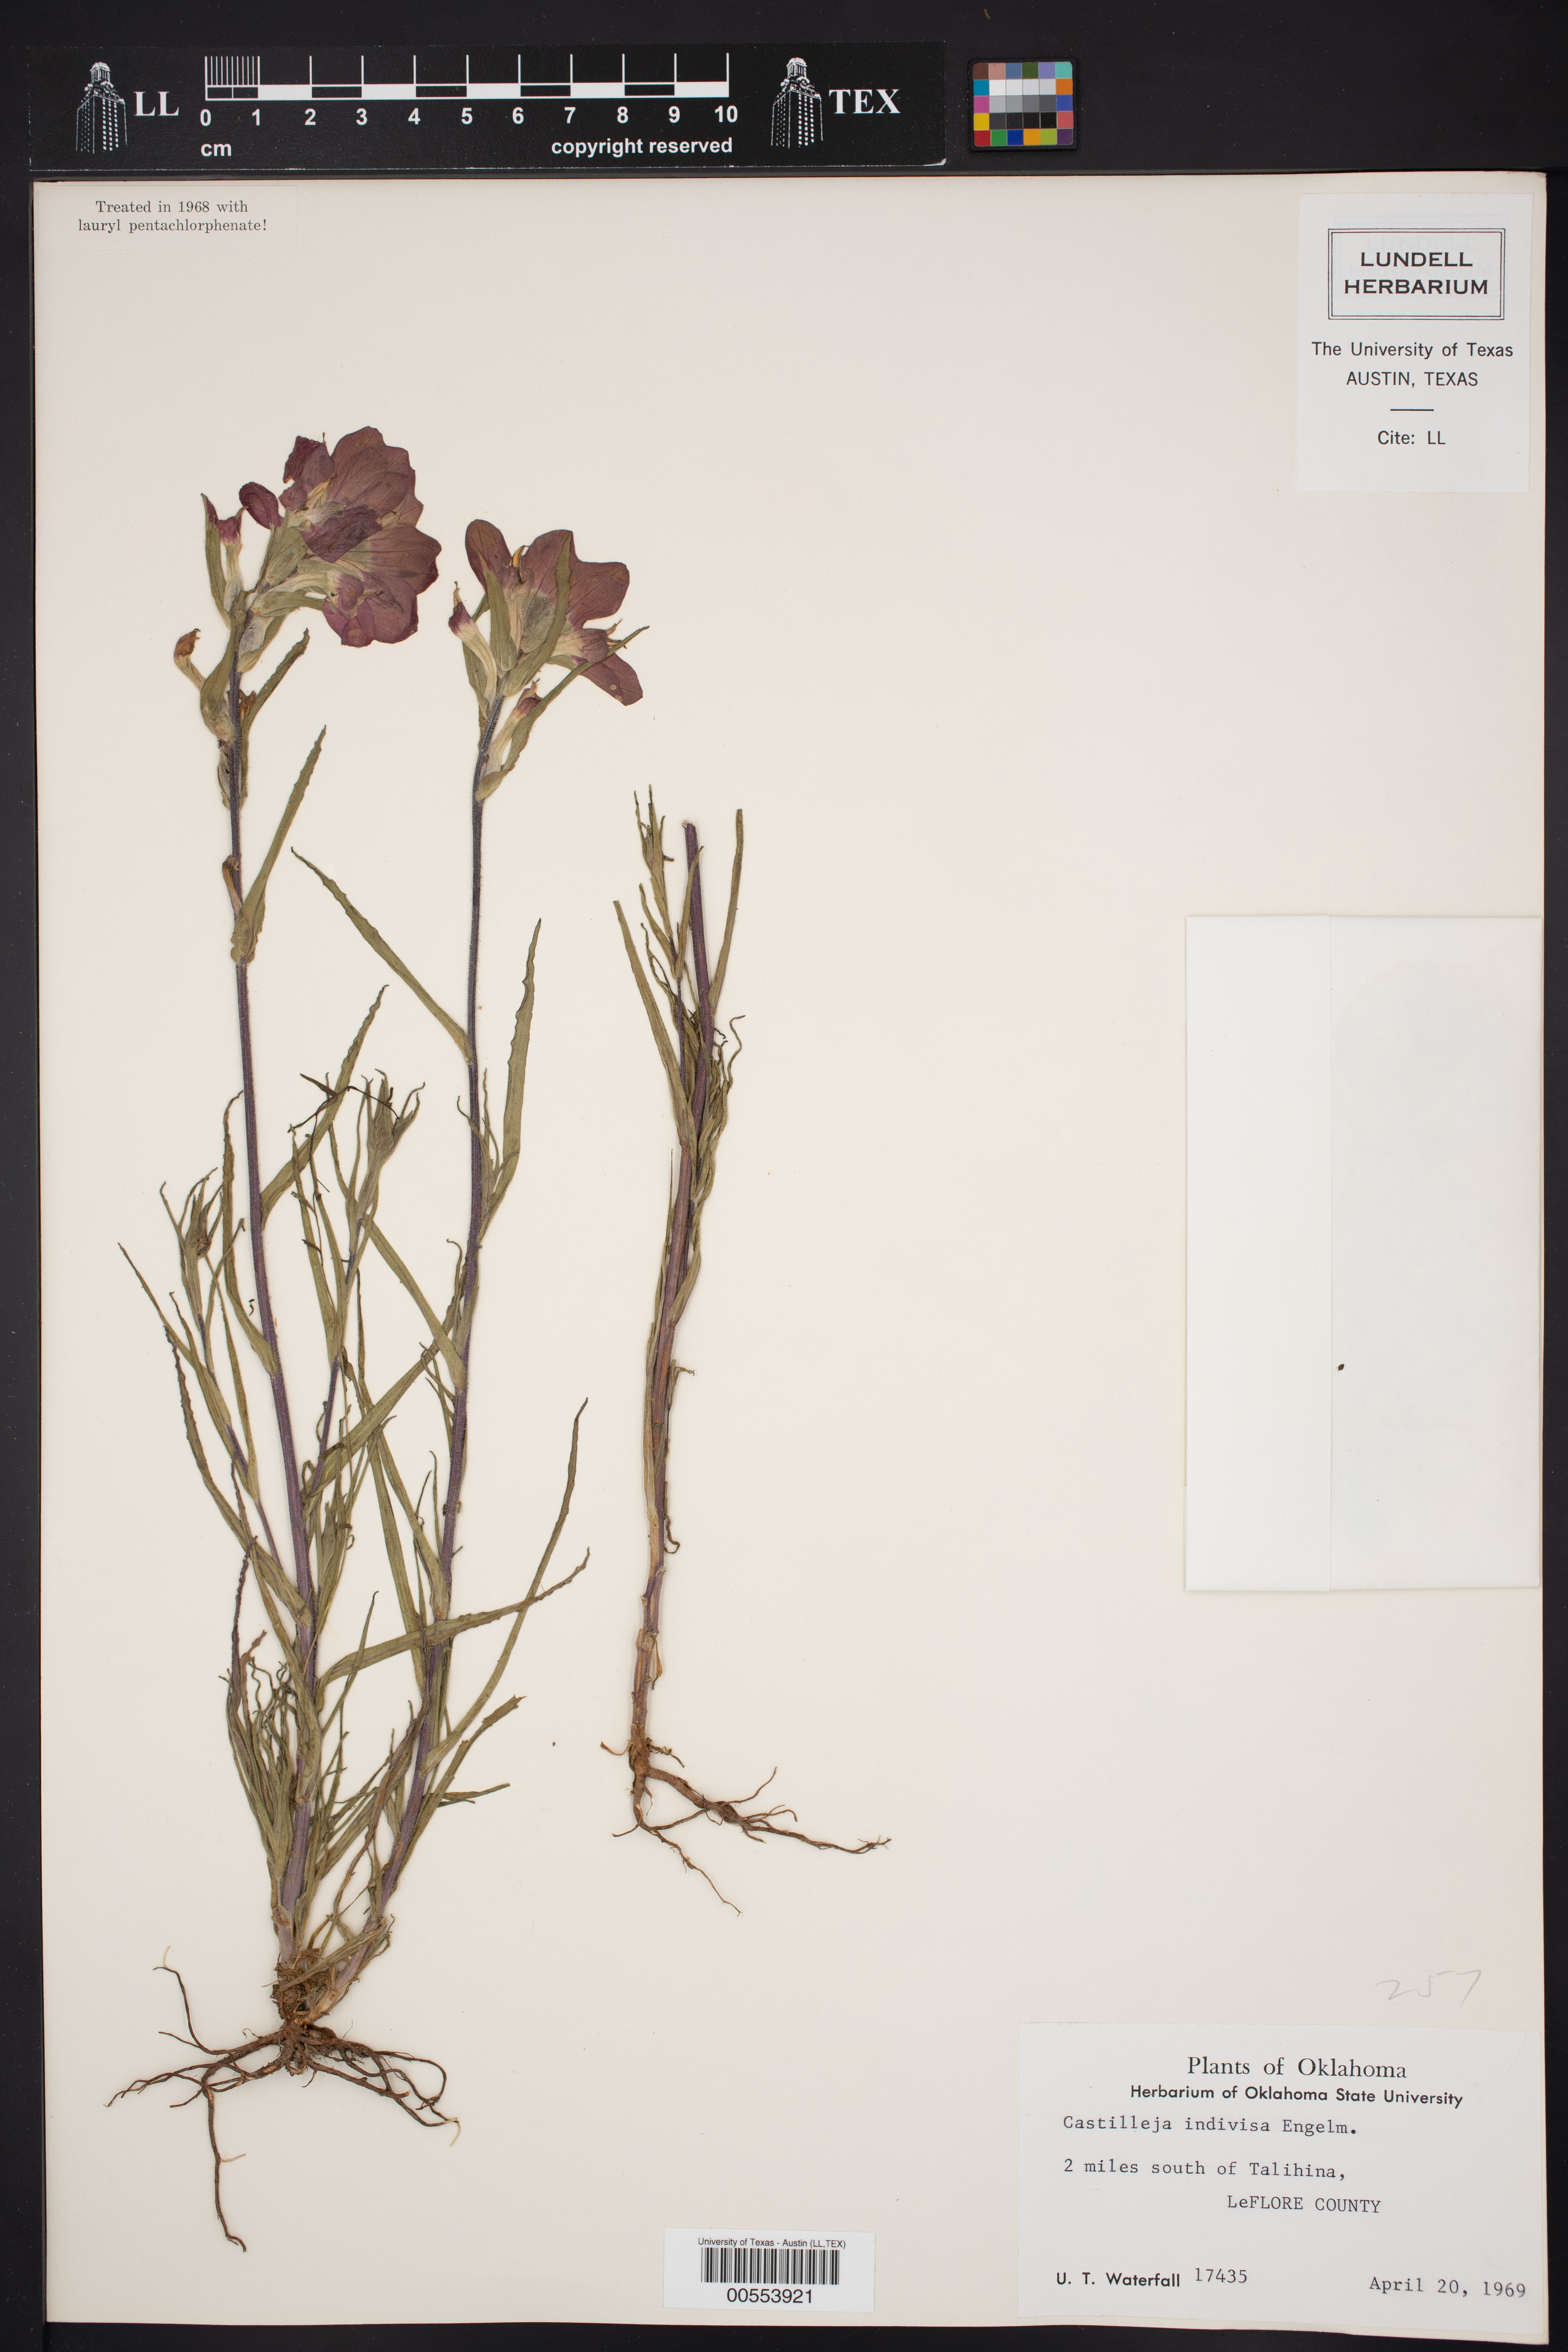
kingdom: Plantae
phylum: Tracheophyta
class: Magnoliopsida
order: Lamiales
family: Orobanchaceae
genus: Castilleja
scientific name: Castilleja indivisa
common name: Texas paintbrush
